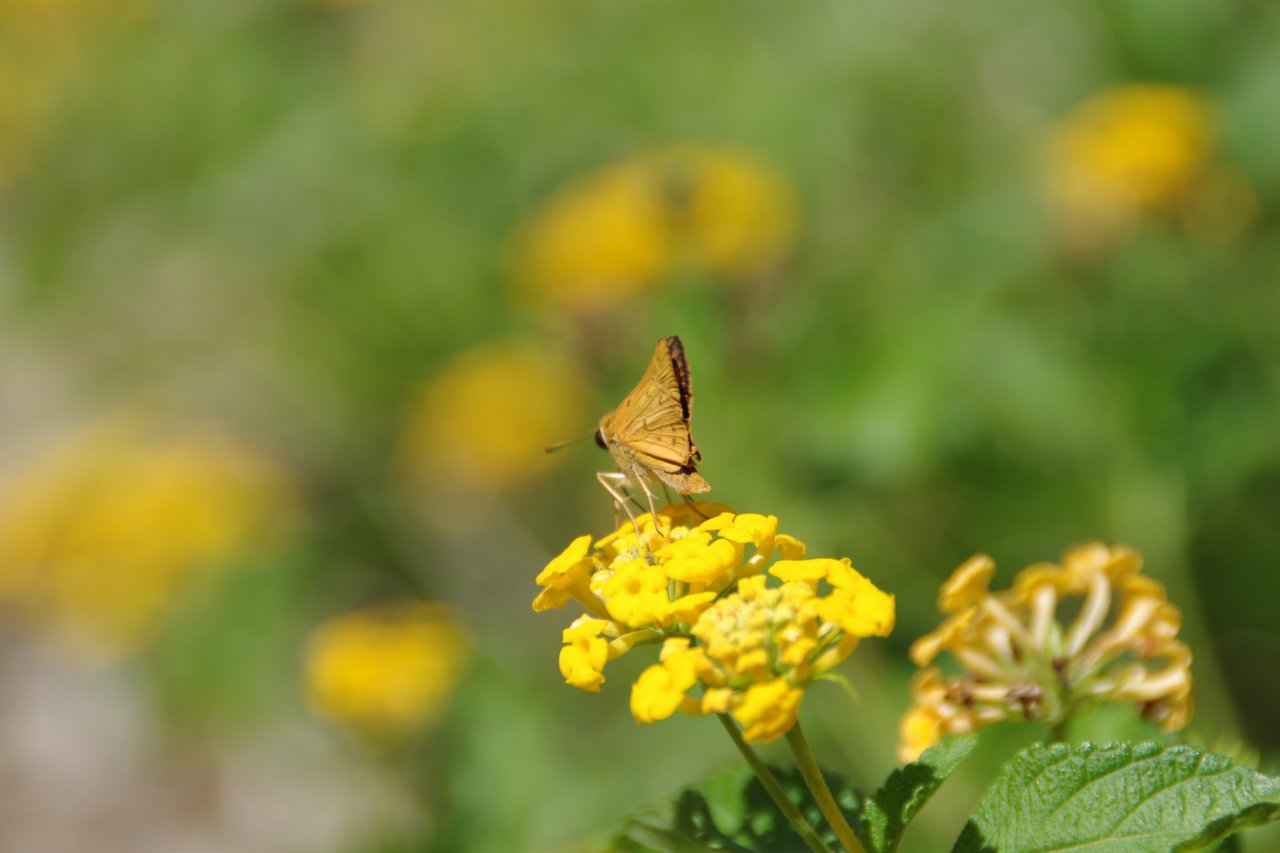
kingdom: Animalia
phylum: Arthropoda
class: Insecta
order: Lepidoptera
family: Hesperiidae
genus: Hylephila
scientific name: Hylephila phyleus
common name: Fiery Skipper
